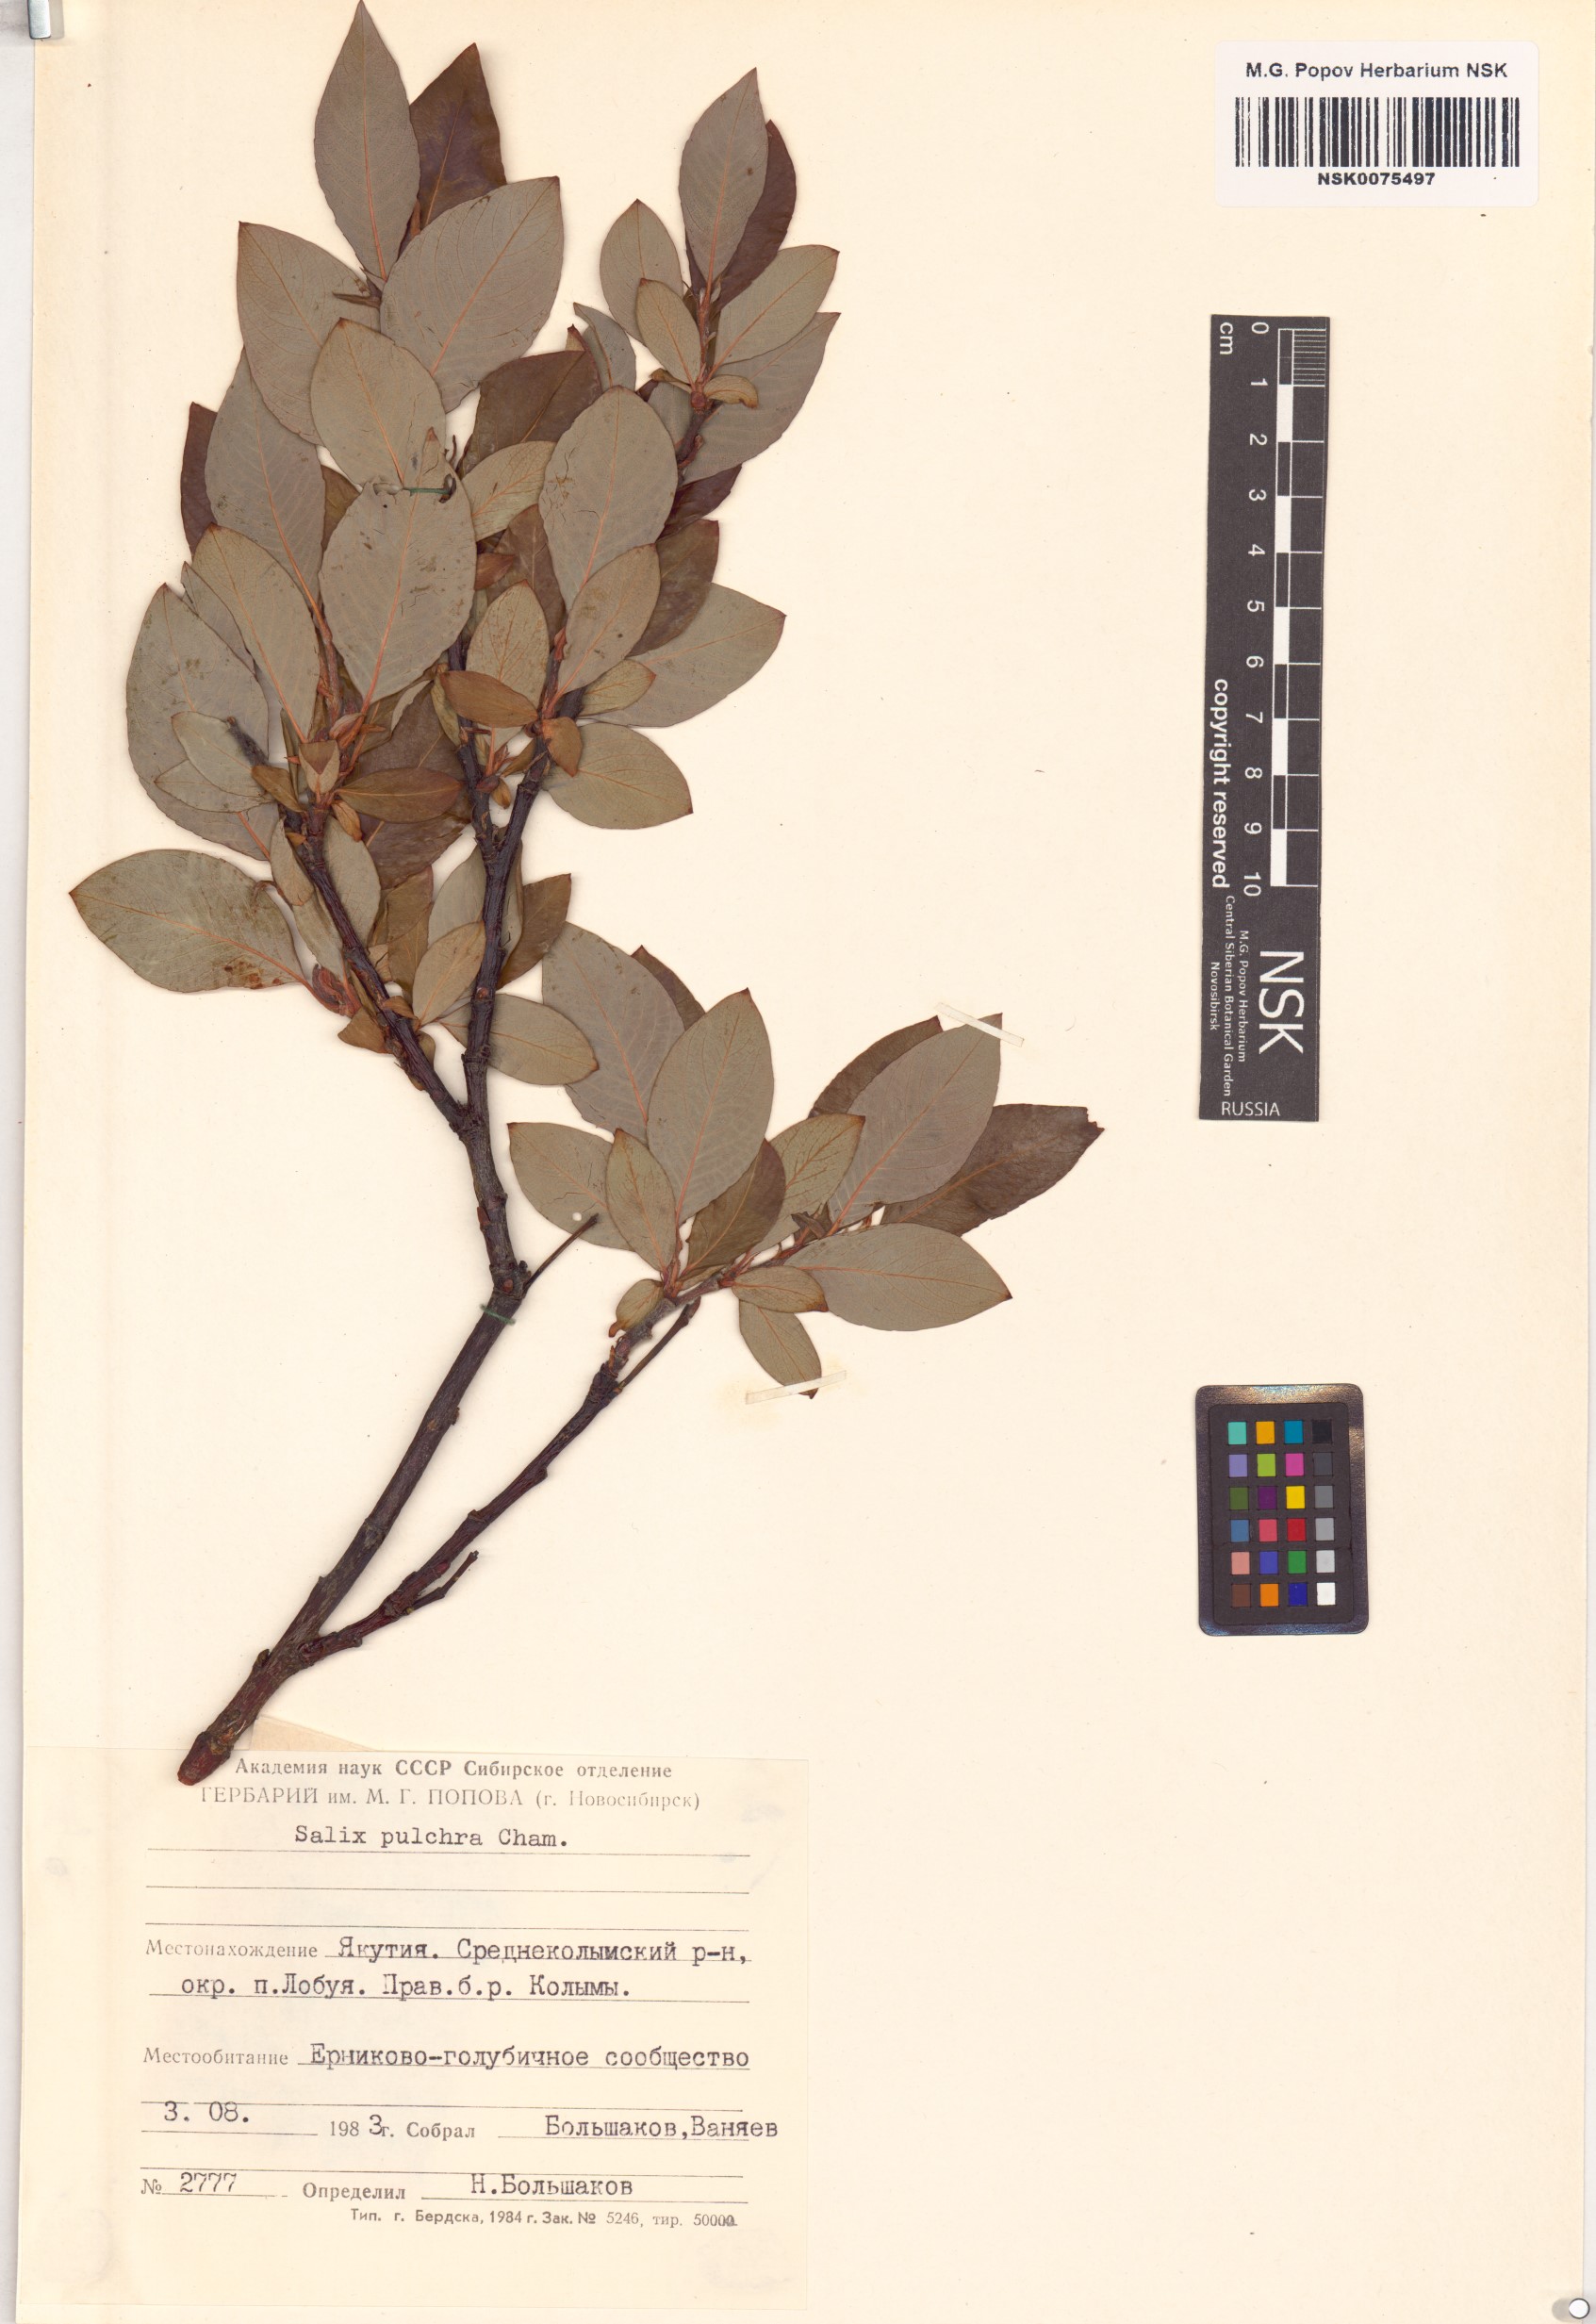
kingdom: Plantae
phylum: Tracheophyta
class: Magnoliopsida
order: Malpighiales
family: Salicaceae
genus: Salix
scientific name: Salix pulchra
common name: Diamond-leaved willow
